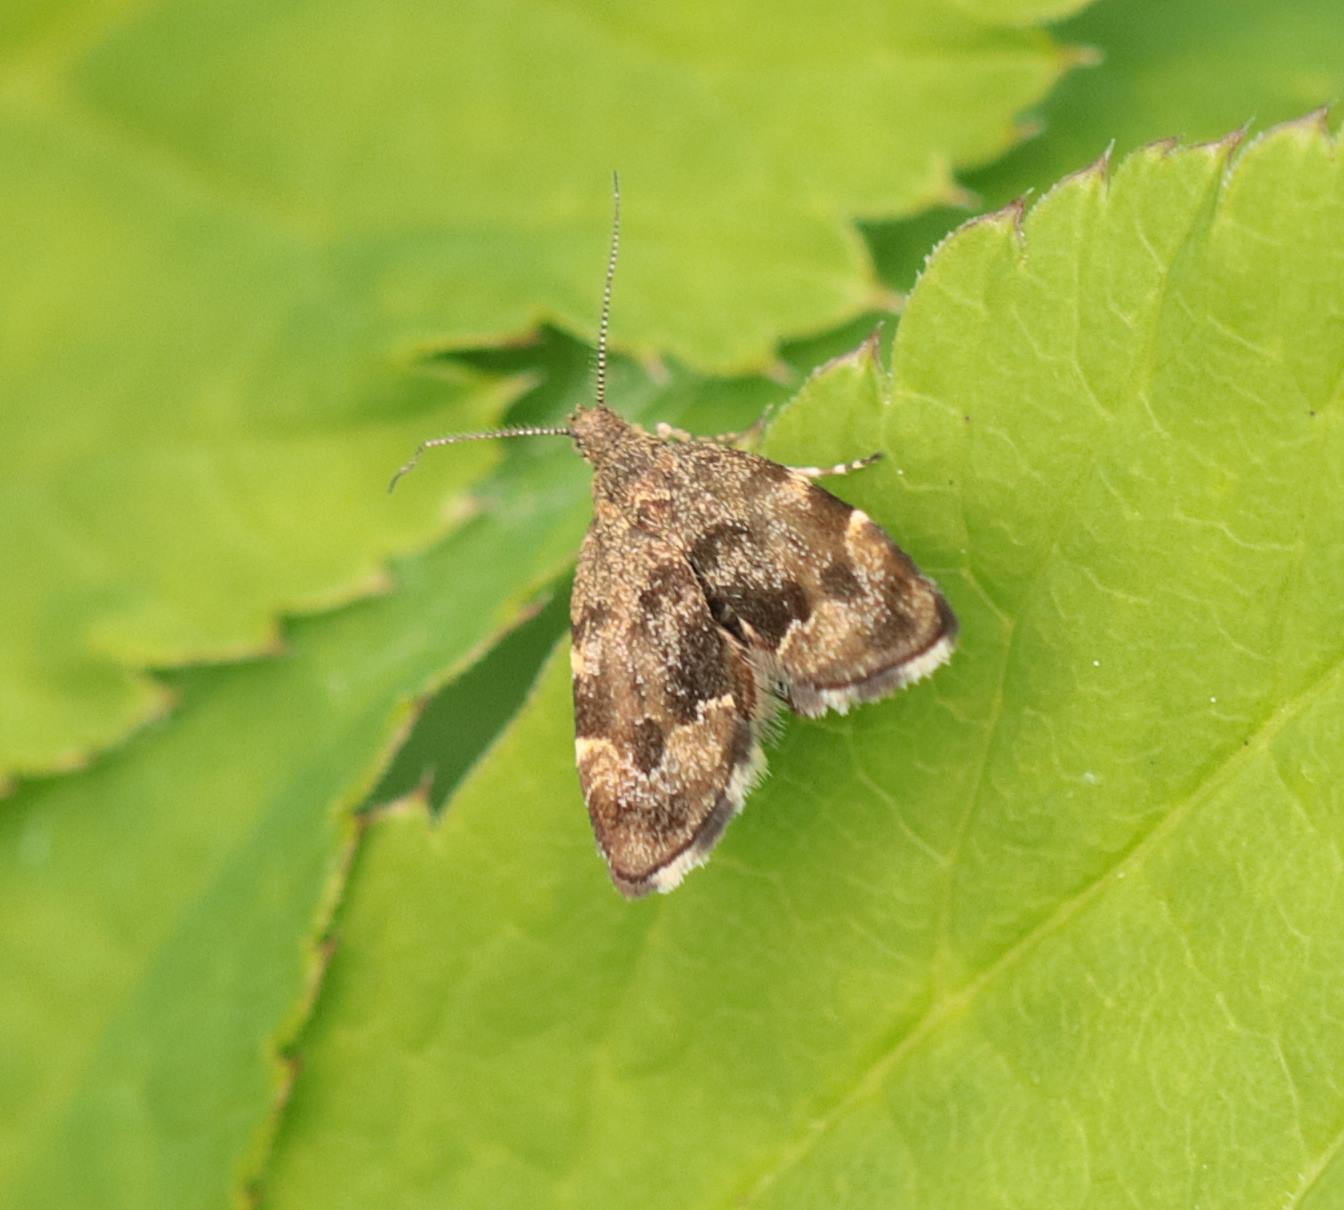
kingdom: Animalia
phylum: Arthropoda
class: Insecta
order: Lepidoptera
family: Choreutidae
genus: Anthophila
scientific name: Anthophila fabriciana
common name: Bredvinget nældevikler
